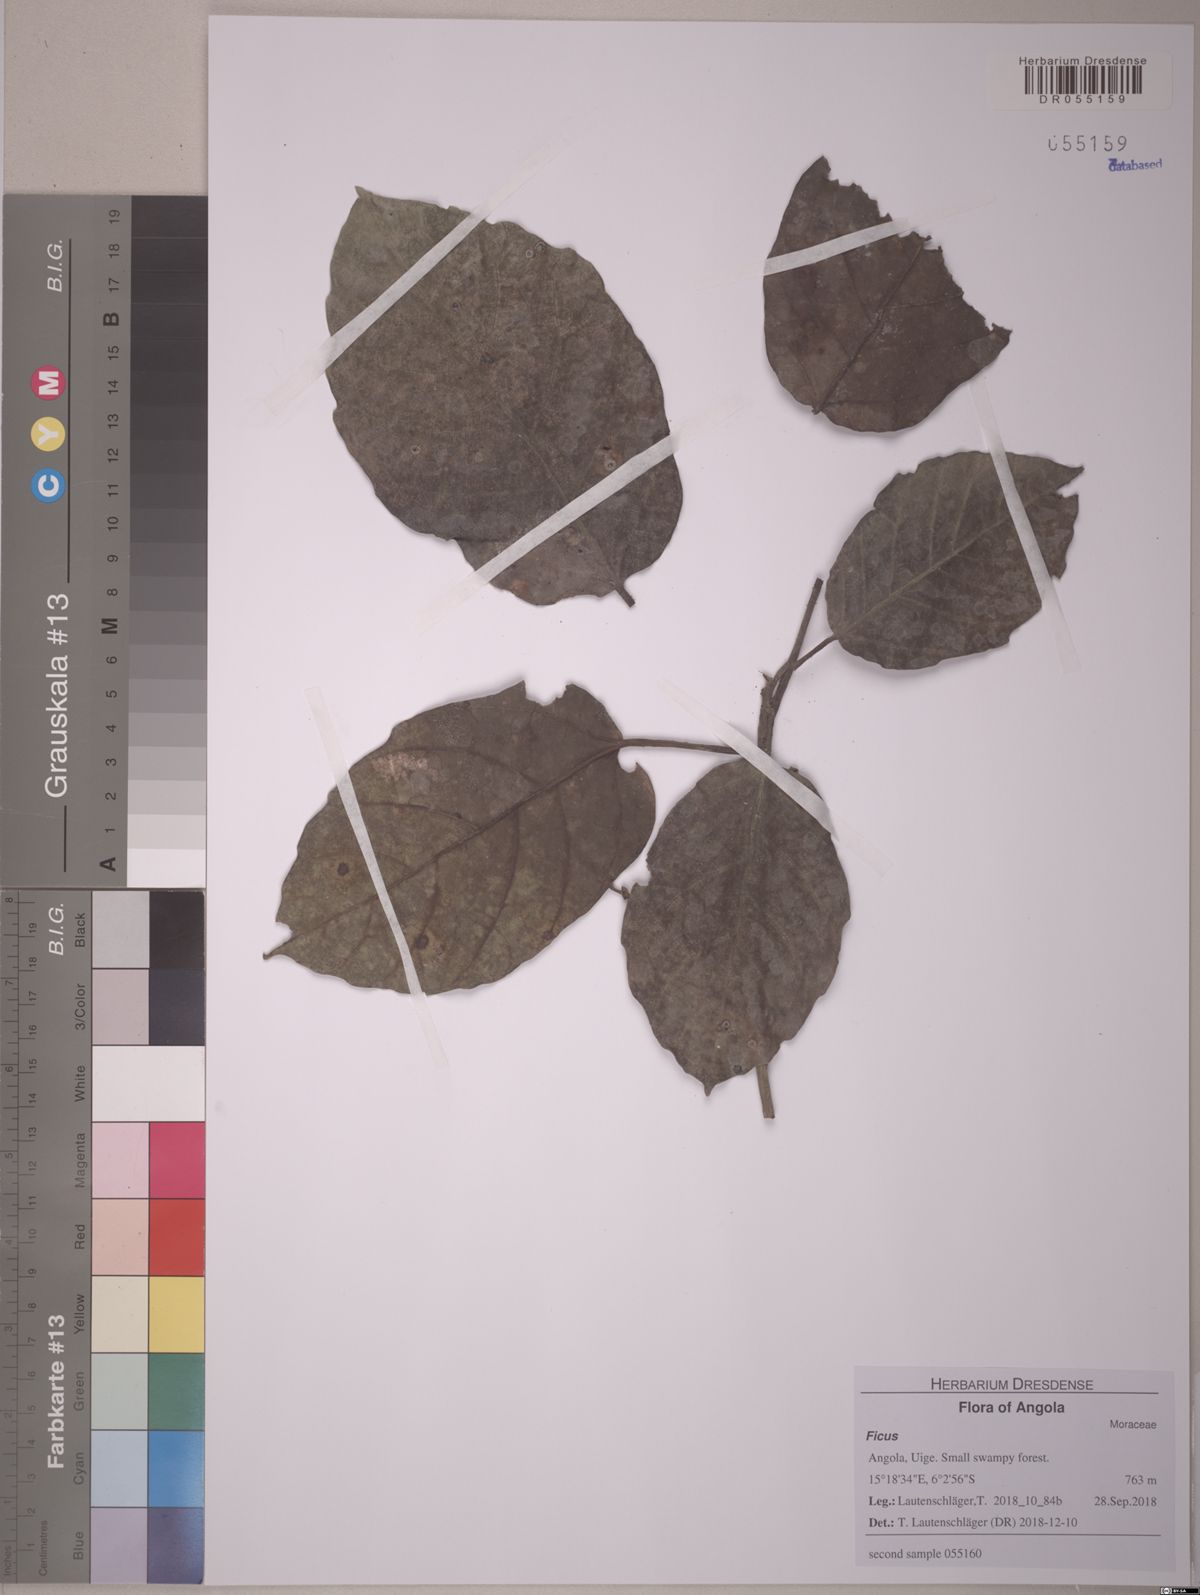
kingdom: Plantae
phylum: Tracheophyta
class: Magnoliopsida
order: Rosales
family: Moraceae
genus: Ficus
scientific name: Ficus
